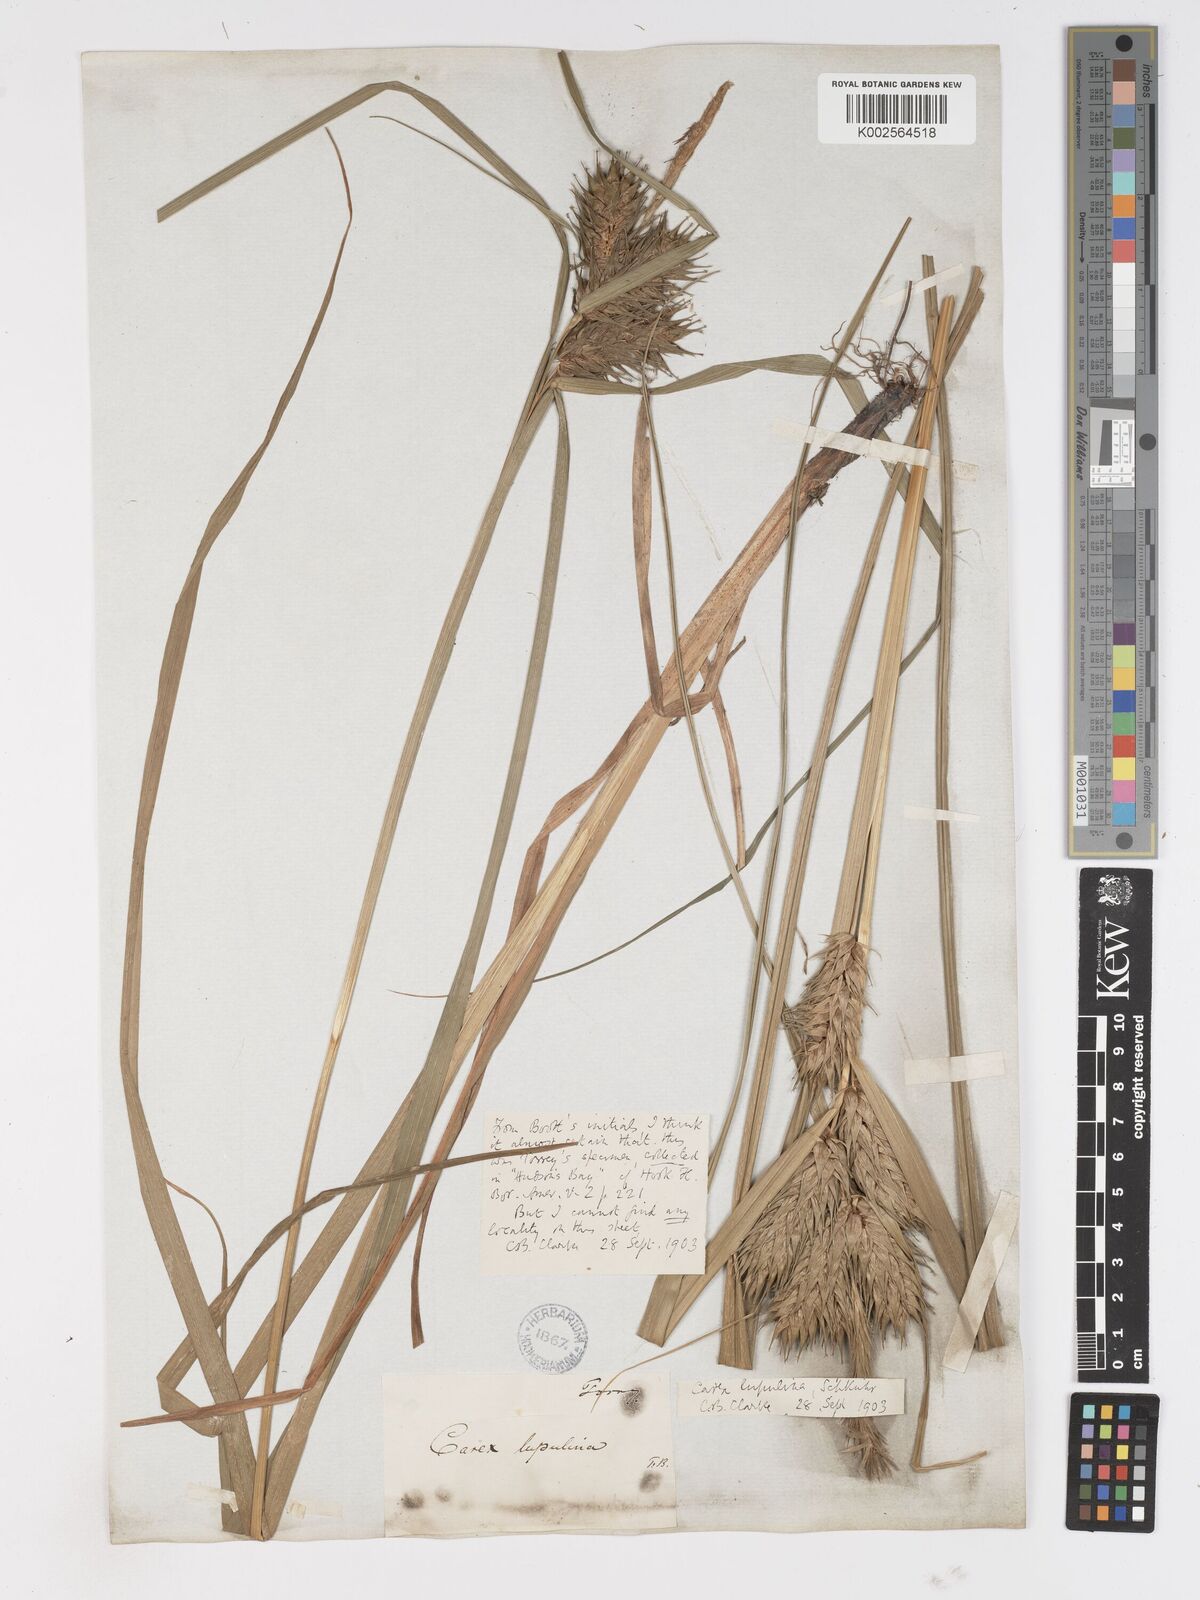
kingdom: Plantae
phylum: Tracheophyta
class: Liliopsida
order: Poales
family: Cyperaceae
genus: Carex
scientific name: Carex lupulina
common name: Hop sedge
